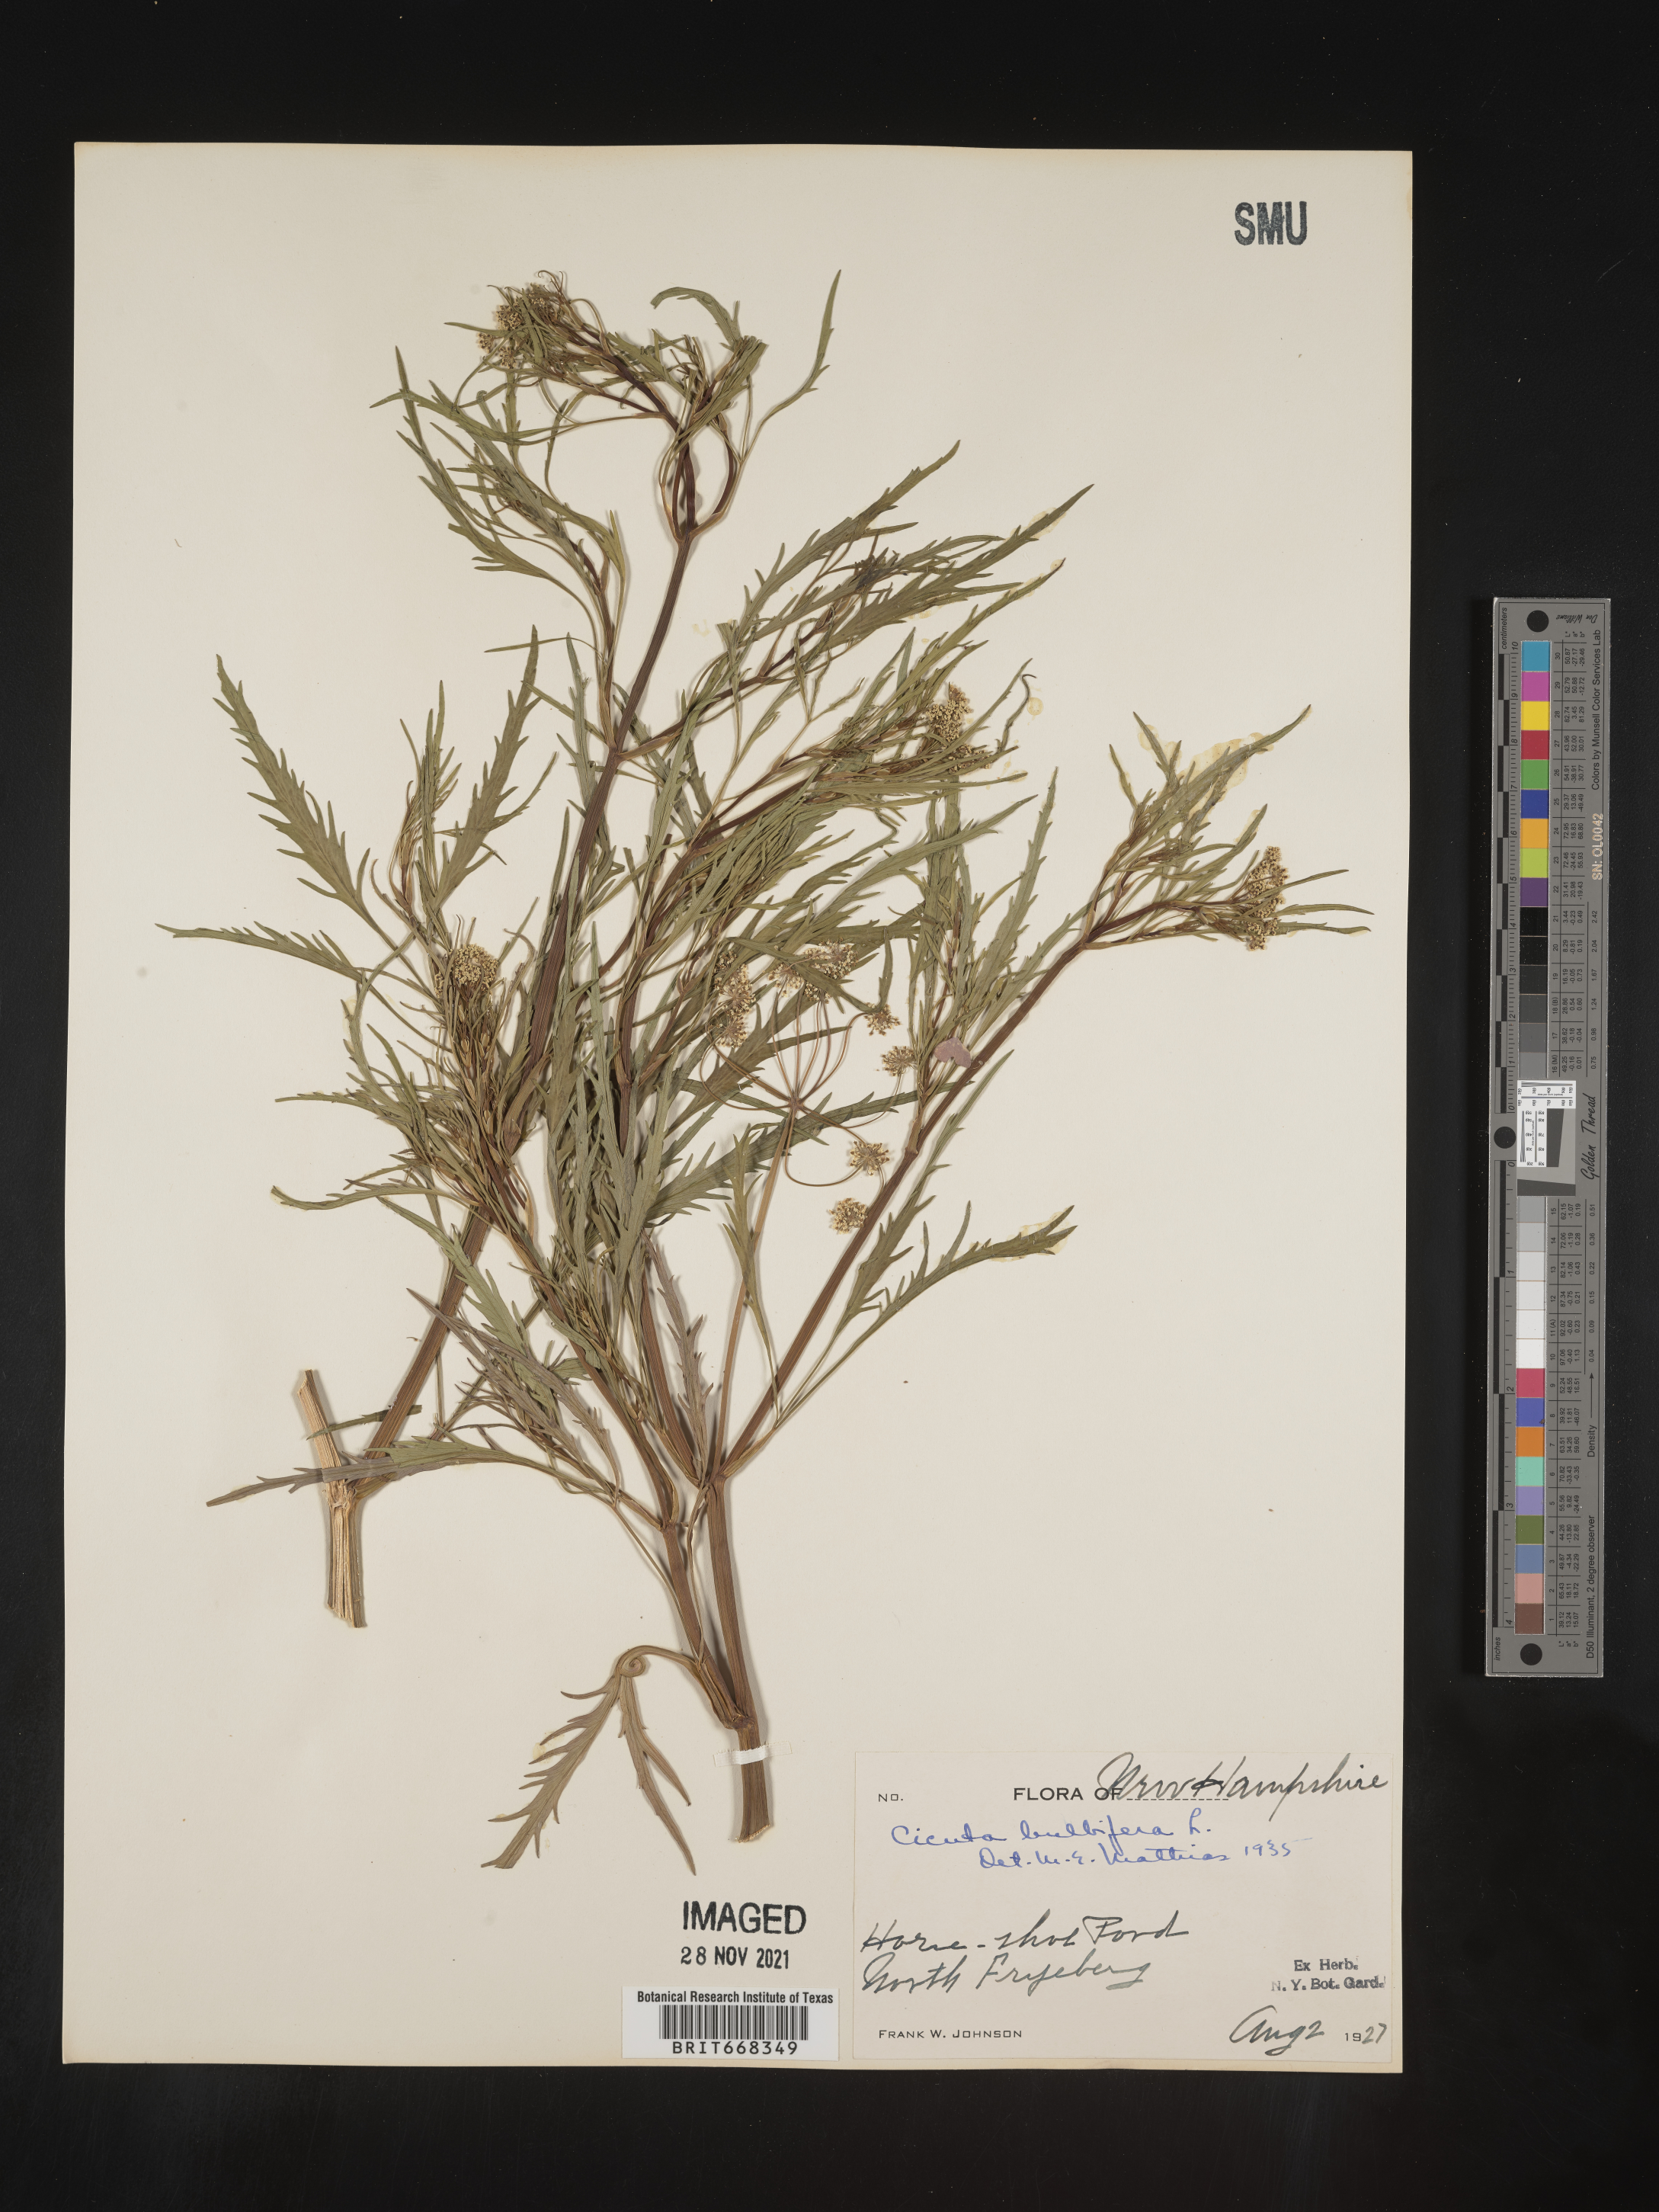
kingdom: Plantae
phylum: Tracheophyta
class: Magnoliopsida
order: Apiales
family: Apiaceae
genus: Cicuta
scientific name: Cicuta
